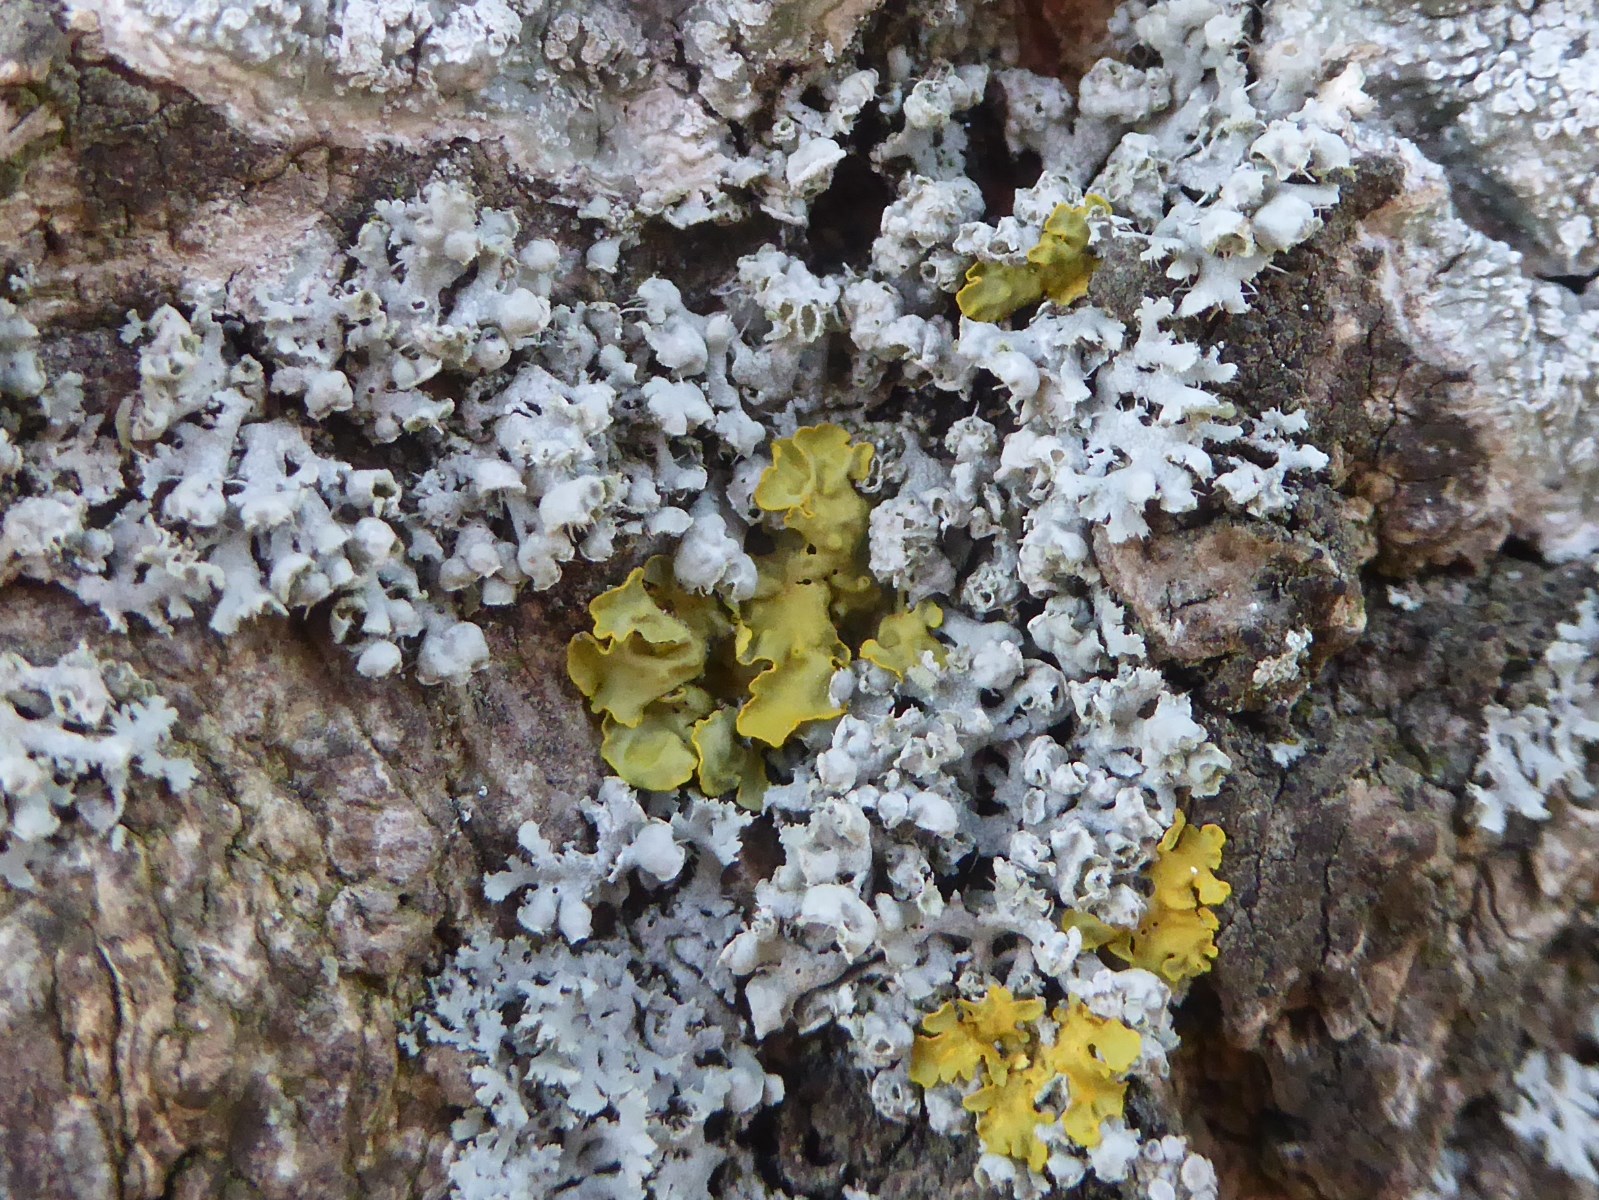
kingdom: Fungi
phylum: Ascomycota
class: Lecanoromycetes
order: Caliciales
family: Physciaceae
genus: Physcia
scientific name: Physcia adscendens
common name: hætte-rosetlav
